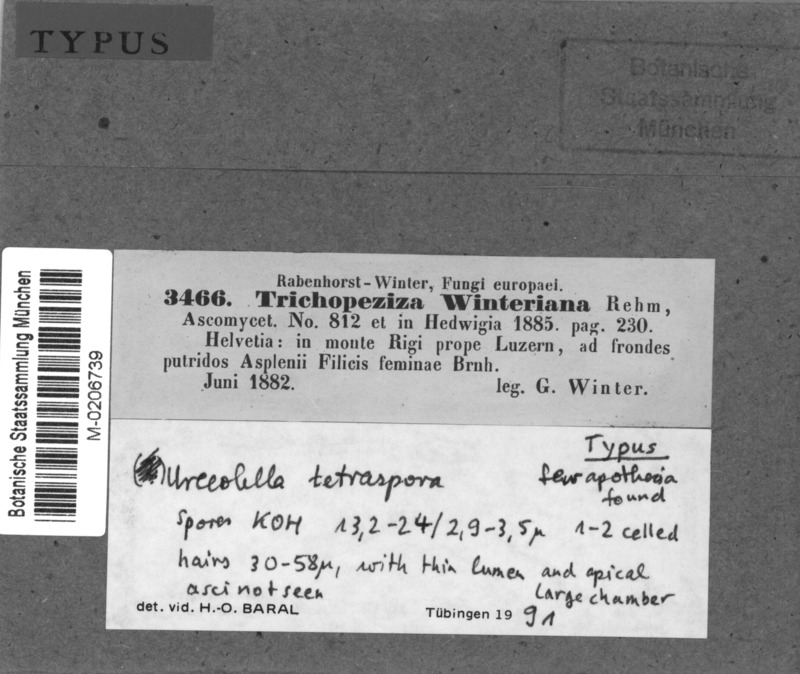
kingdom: Fungi
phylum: Ascomycota
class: Leotiomycetes
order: Helotiales
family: Hyaloscyphaceae
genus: Urceolella
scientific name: Urceolella tetraspora
